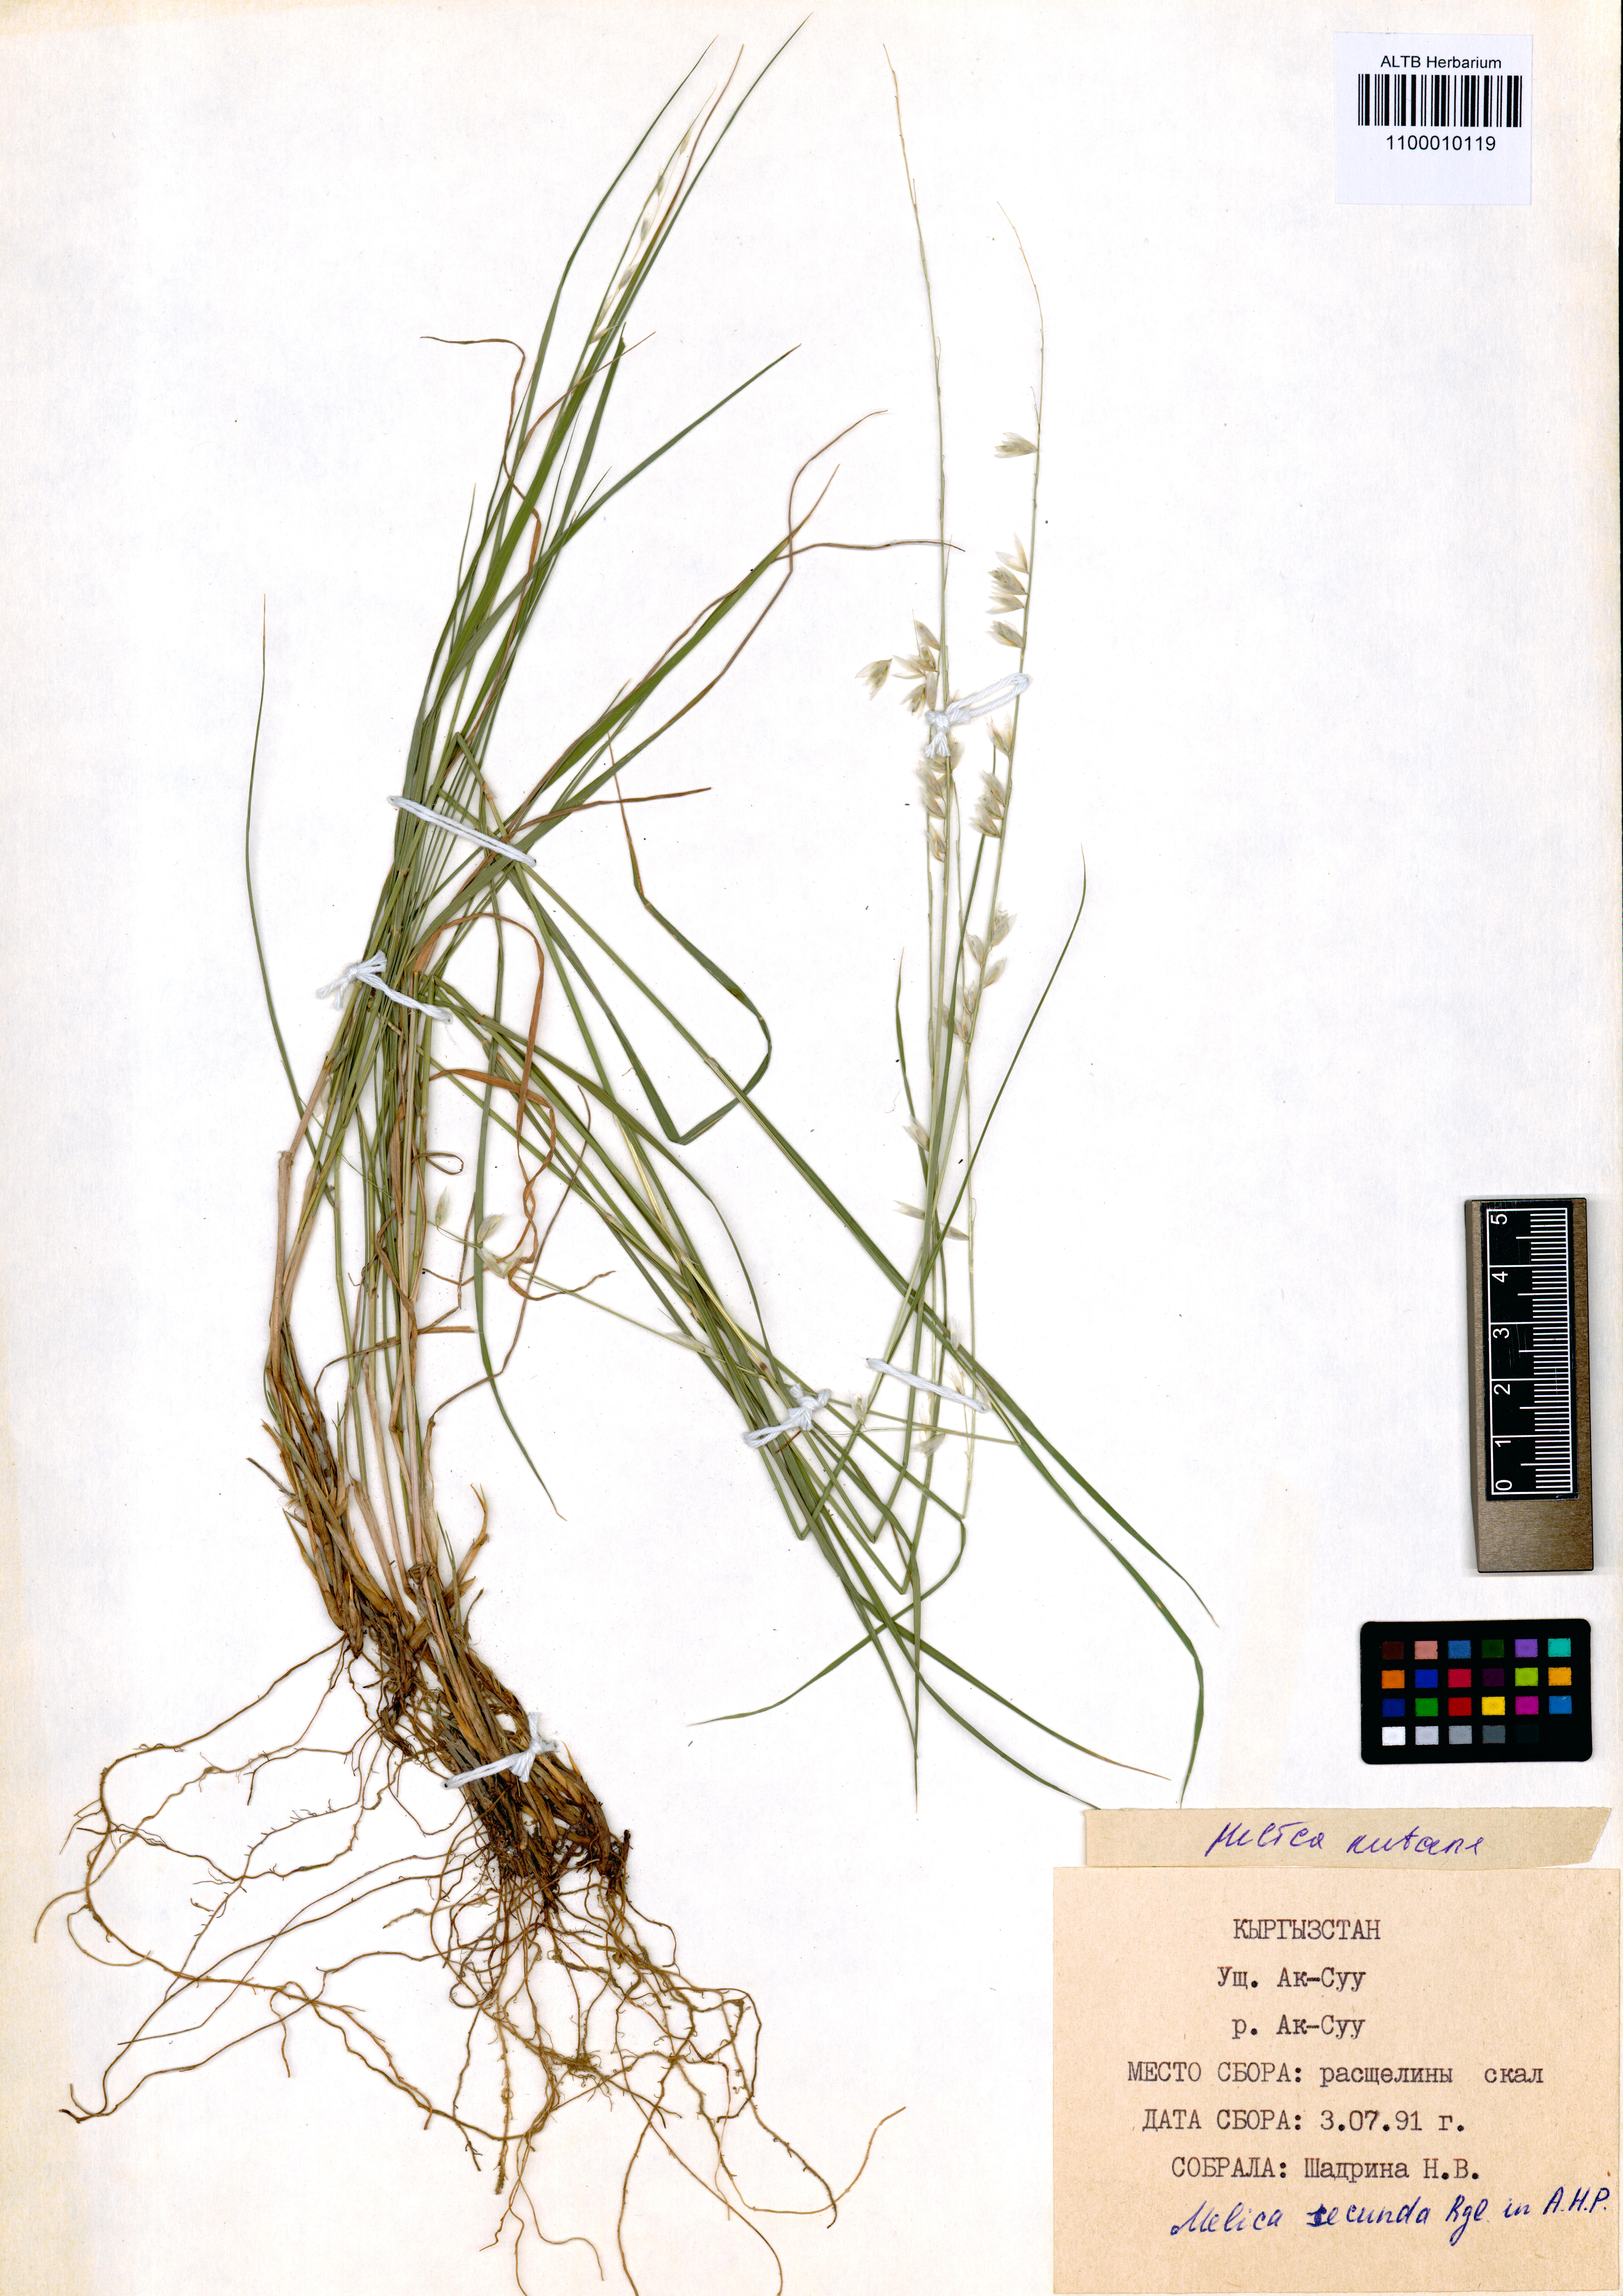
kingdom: Plantae
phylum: Tracheophyta
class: Liliopsida
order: Poales
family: Poaceae
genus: Melica
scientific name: Melica nutans
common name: Mountain melick
